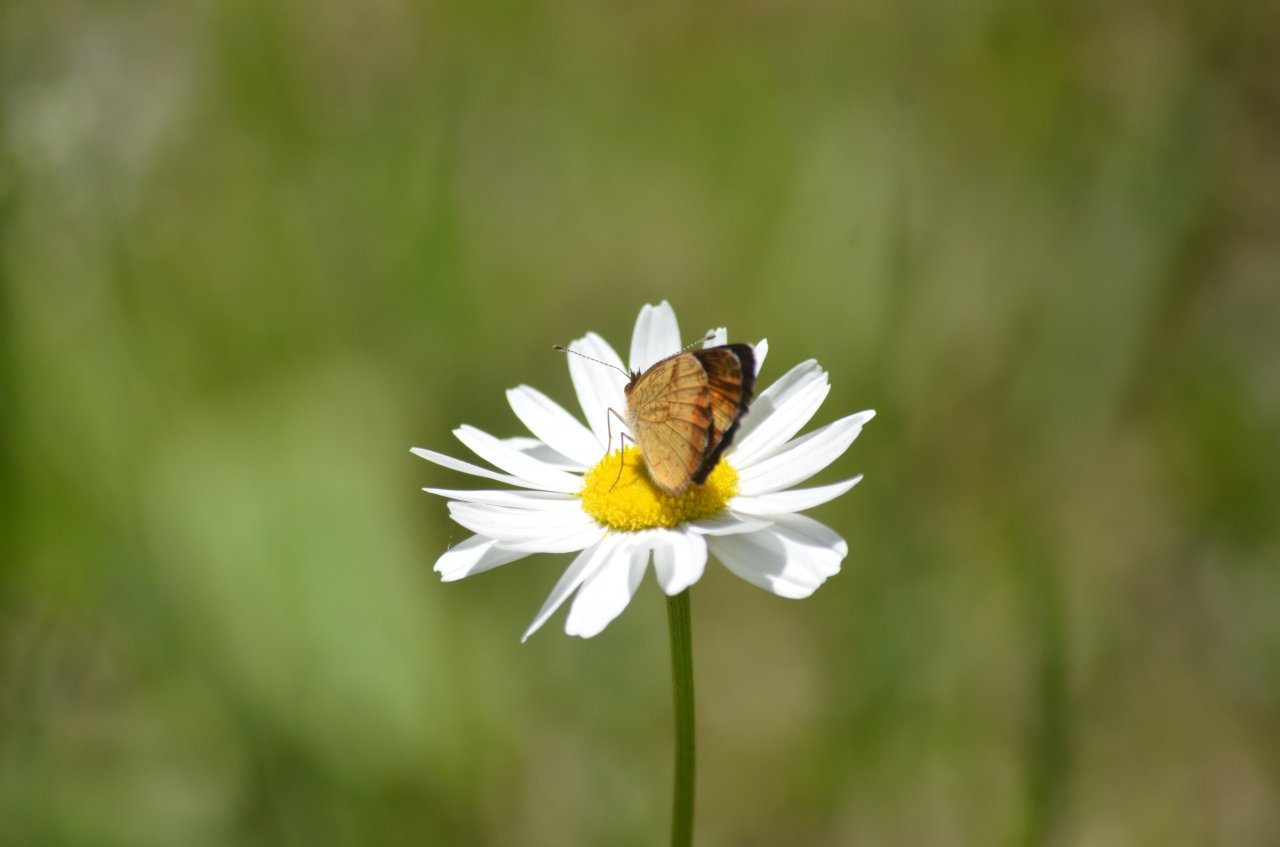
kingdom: Animalia
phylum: Arthropoda
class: Insecta
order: Lepidoptera
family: Nymphalidae
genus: Phyciodes
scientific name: Phyciodes tharos
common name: Northern Crescent
